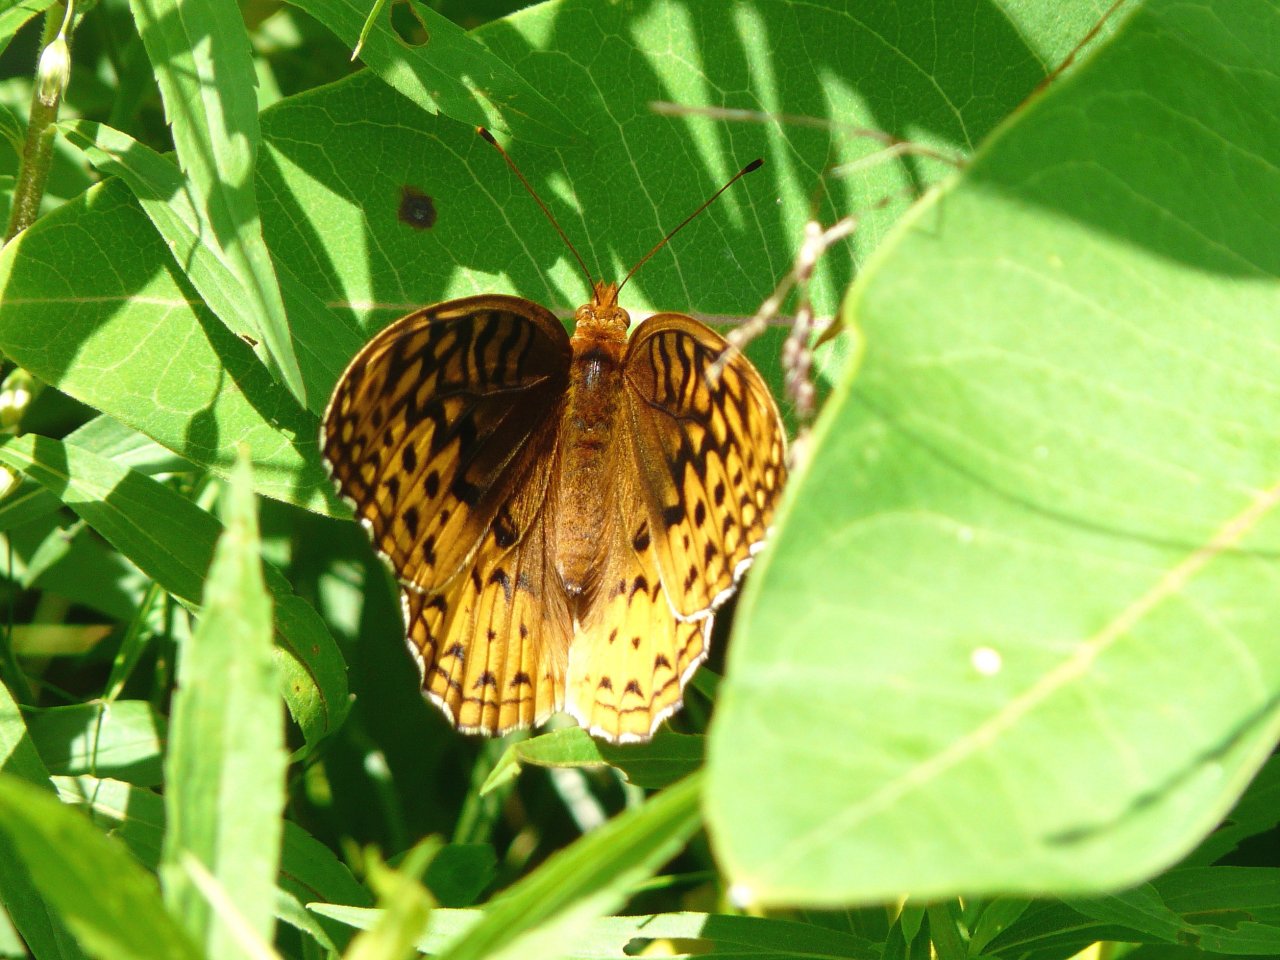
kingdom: Animalia
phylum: Arthropoda
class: Insecta
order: Lepidoptera
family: Nymphalidae
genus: Speyeria
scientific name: Speyeria cybele
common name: Great Spangled Fritillary
